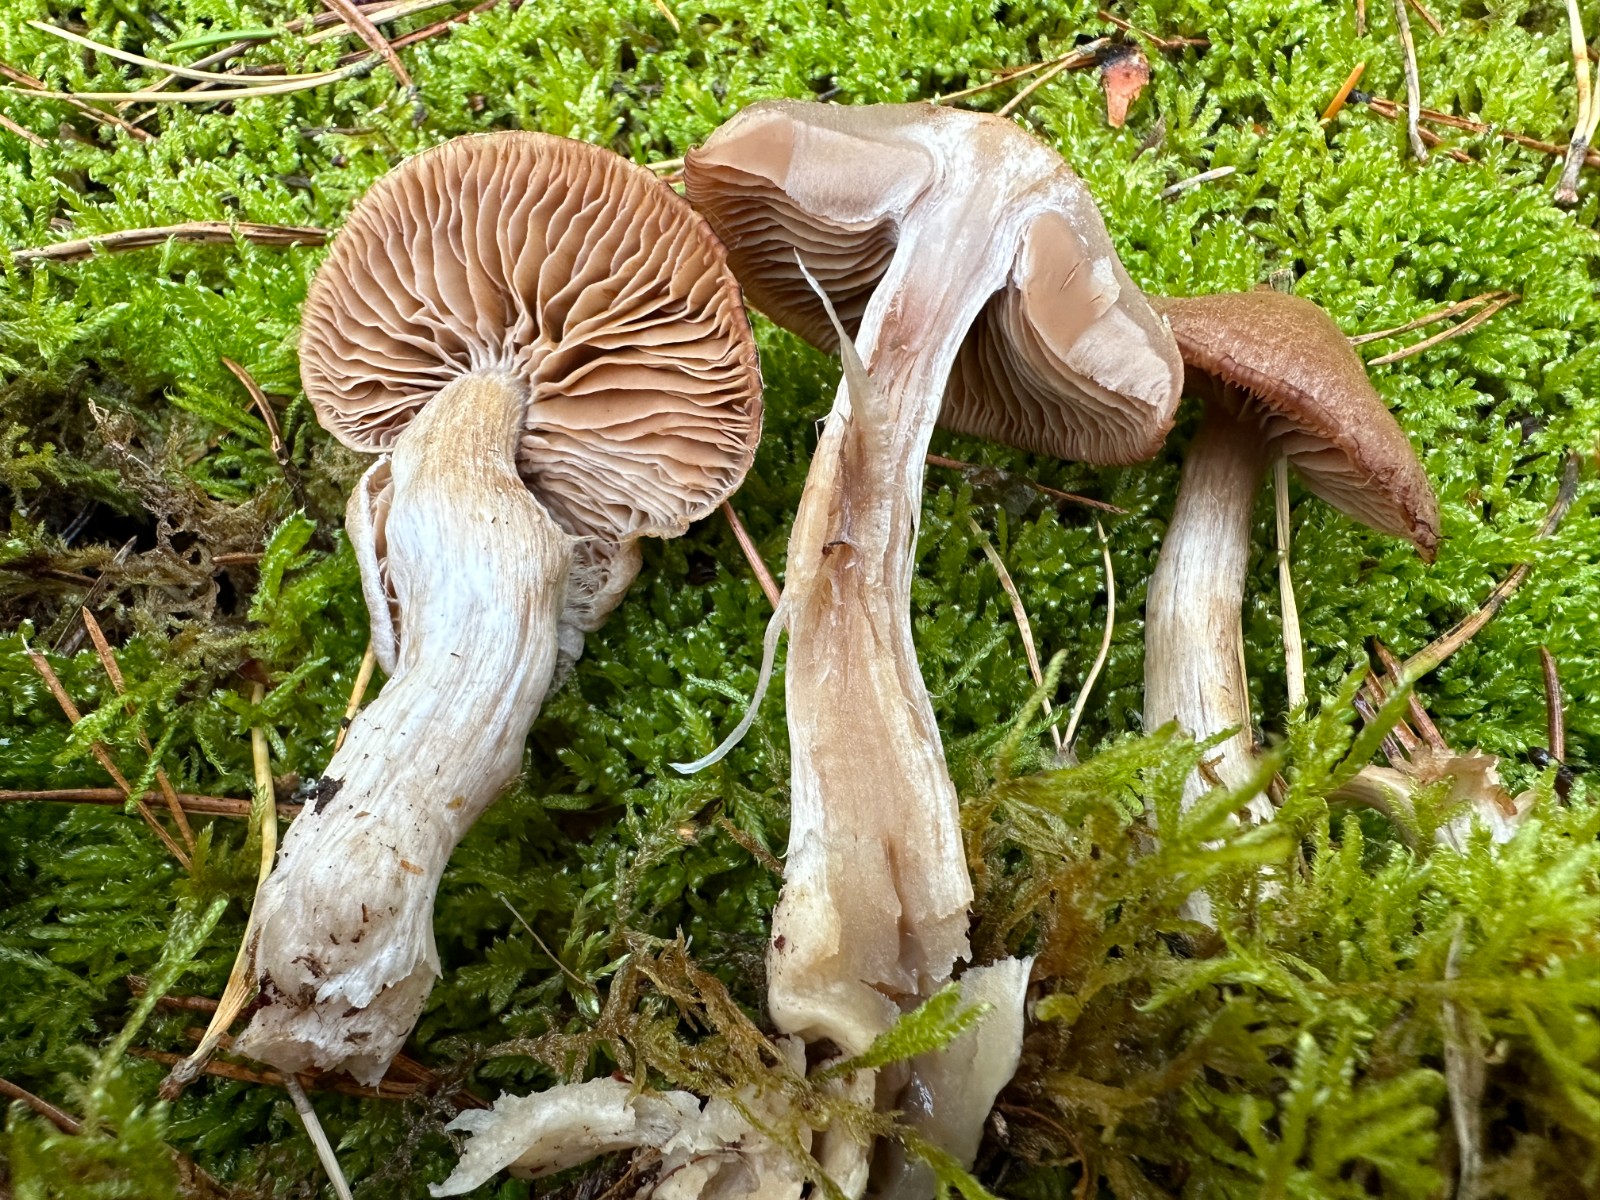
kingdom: Fungi
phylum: Basidiomycota
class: Agaricomycetes
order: Agaricales
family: Cortinariaceae
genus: Cortinarius
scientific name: Cortinarius
